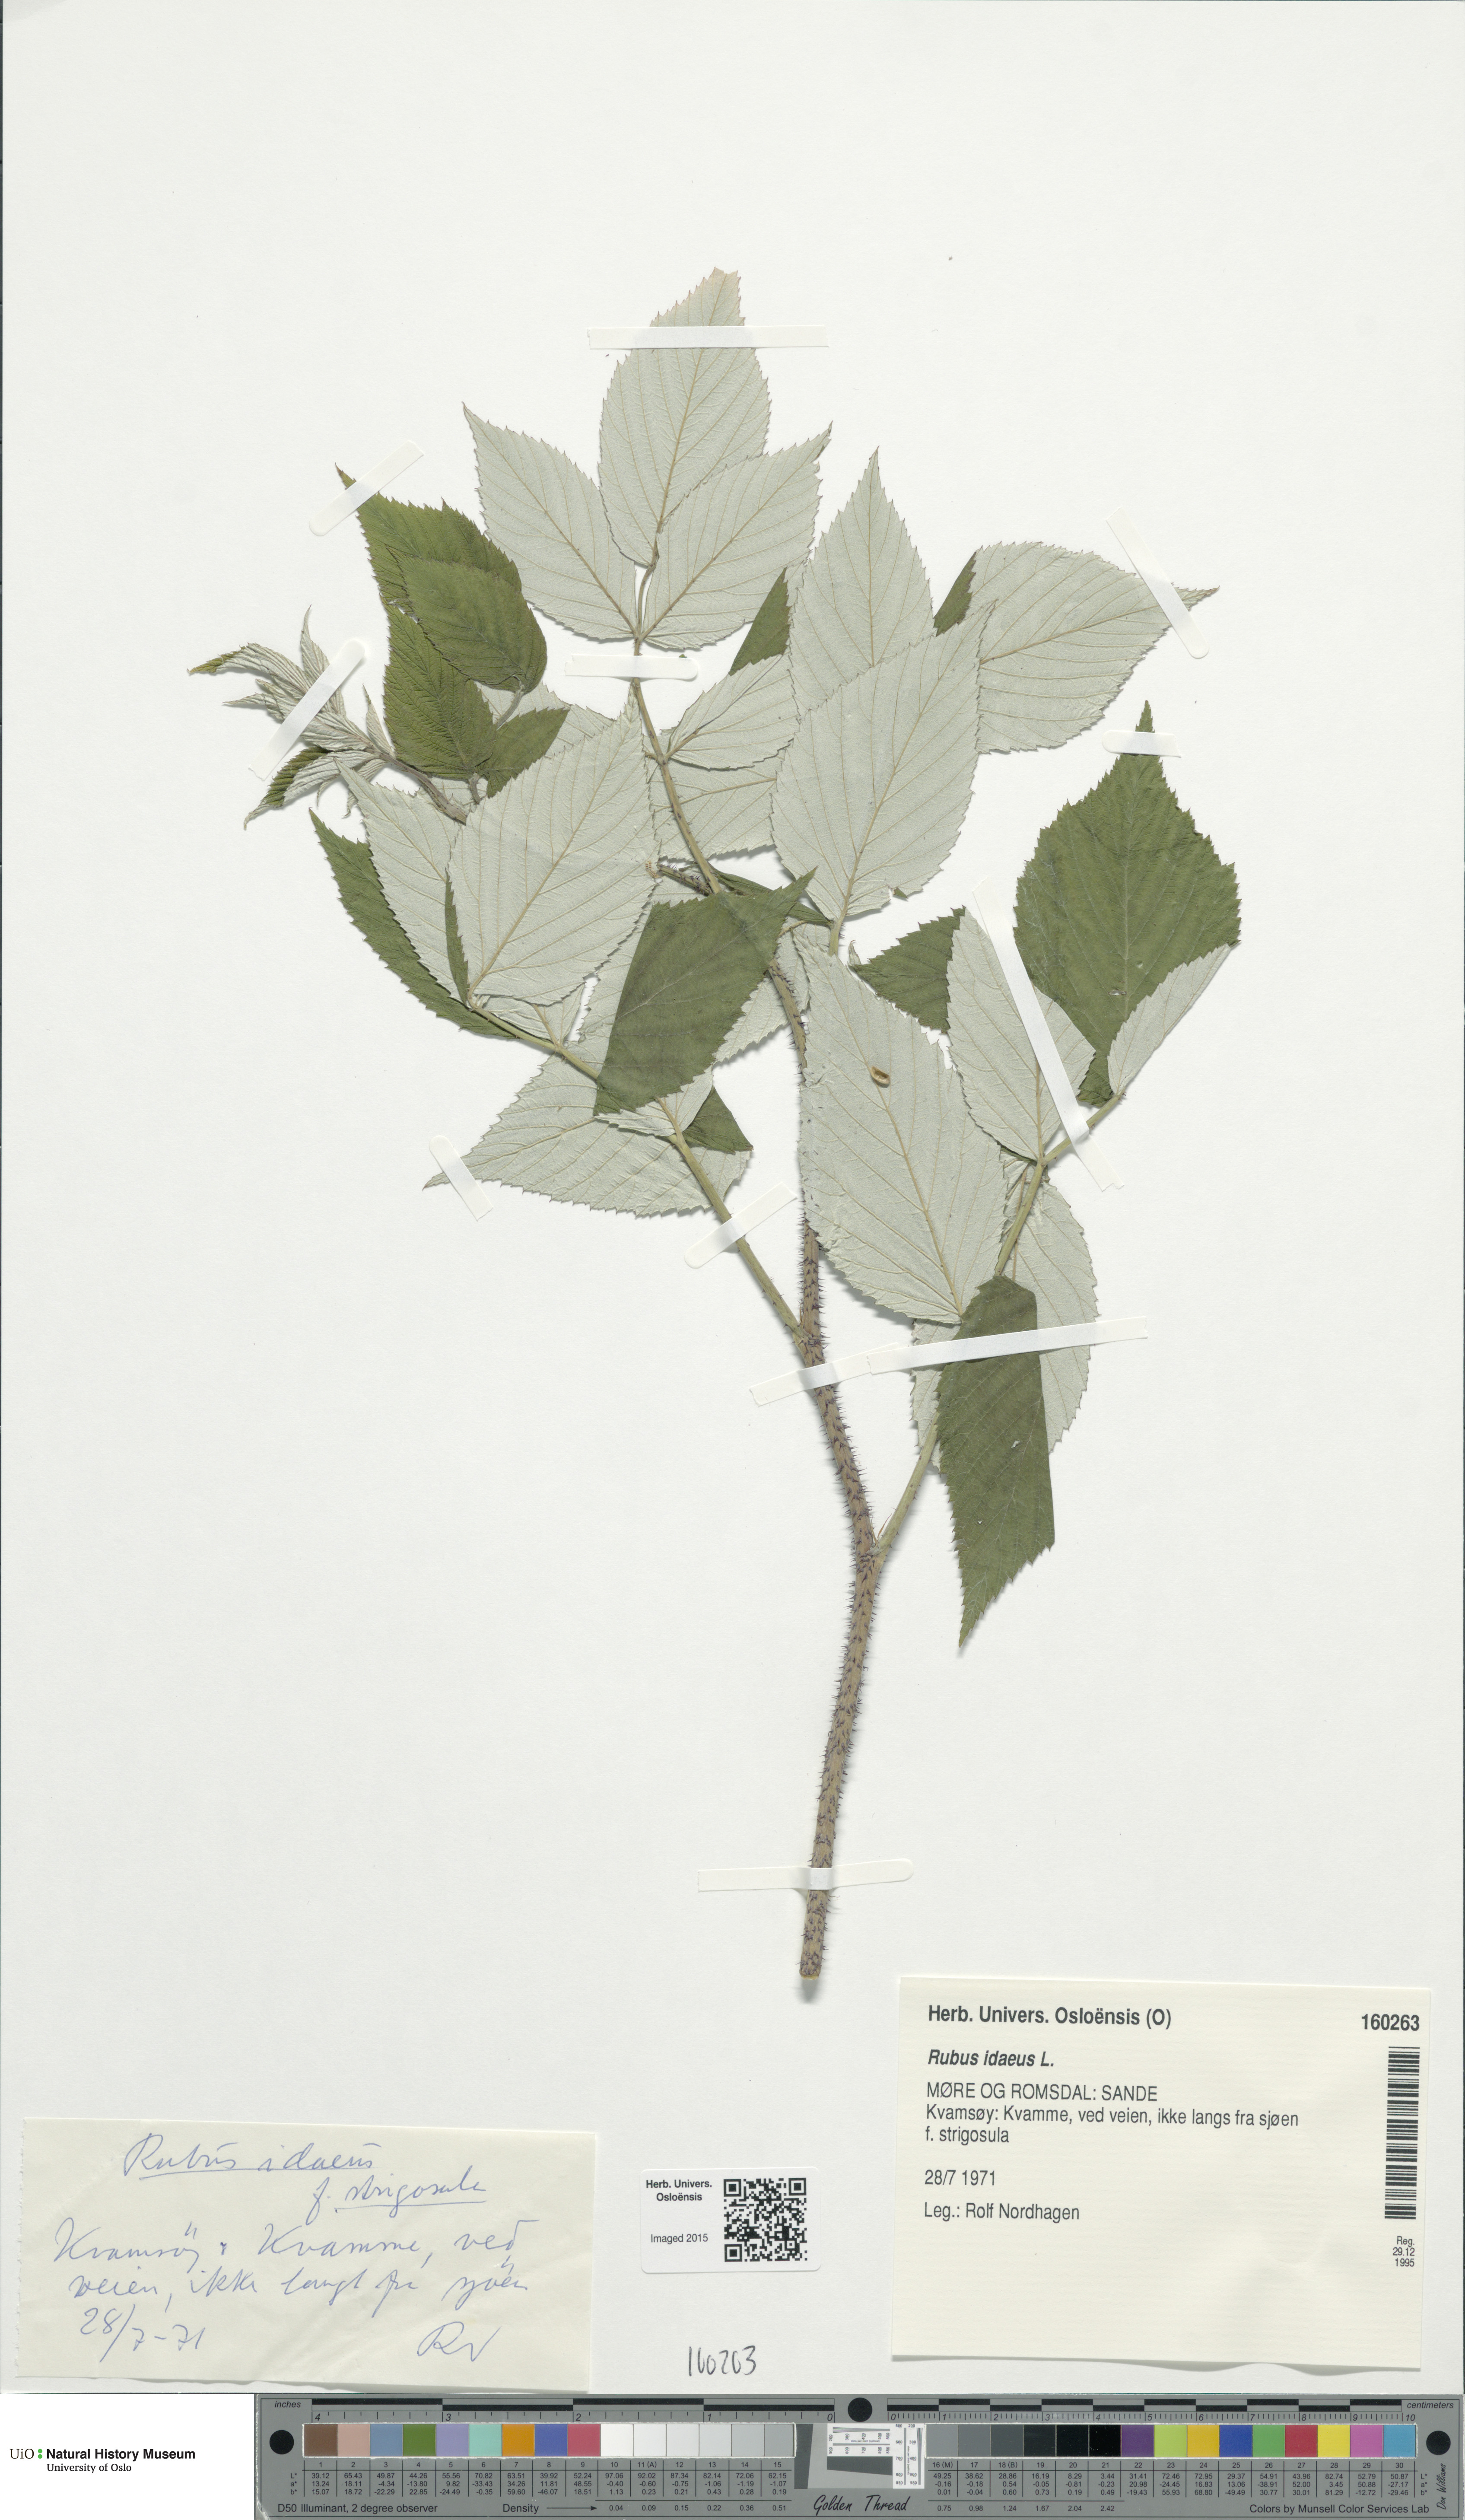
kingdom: Plantae
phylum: Tracheophyta
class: Magnoliopsida
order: Rosales
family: Rosaceae
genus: Rubus
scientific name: Rubus idaeus
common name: Raspberry
